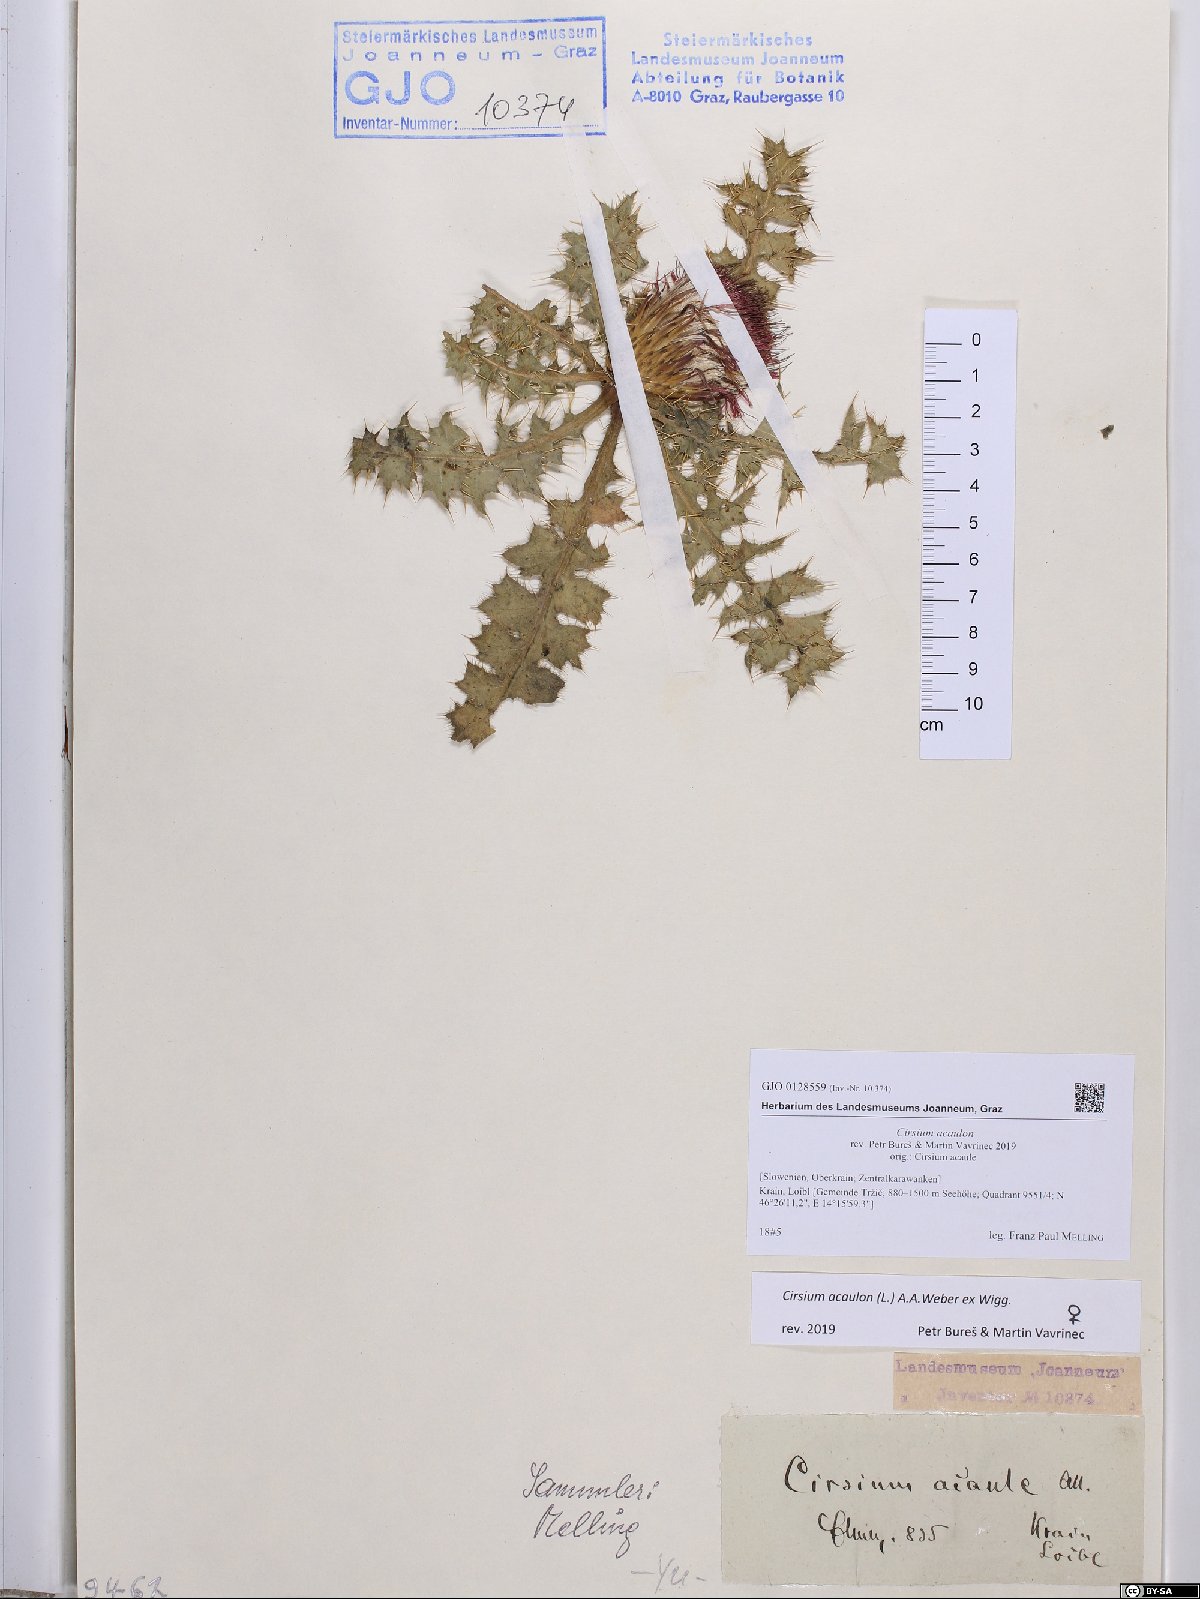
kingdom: Plantae
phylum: Tracheophyta
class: Magnoliopsida
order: Asterales
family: Asteraceae
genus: Cirsium
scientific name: Cirsium acaulon
